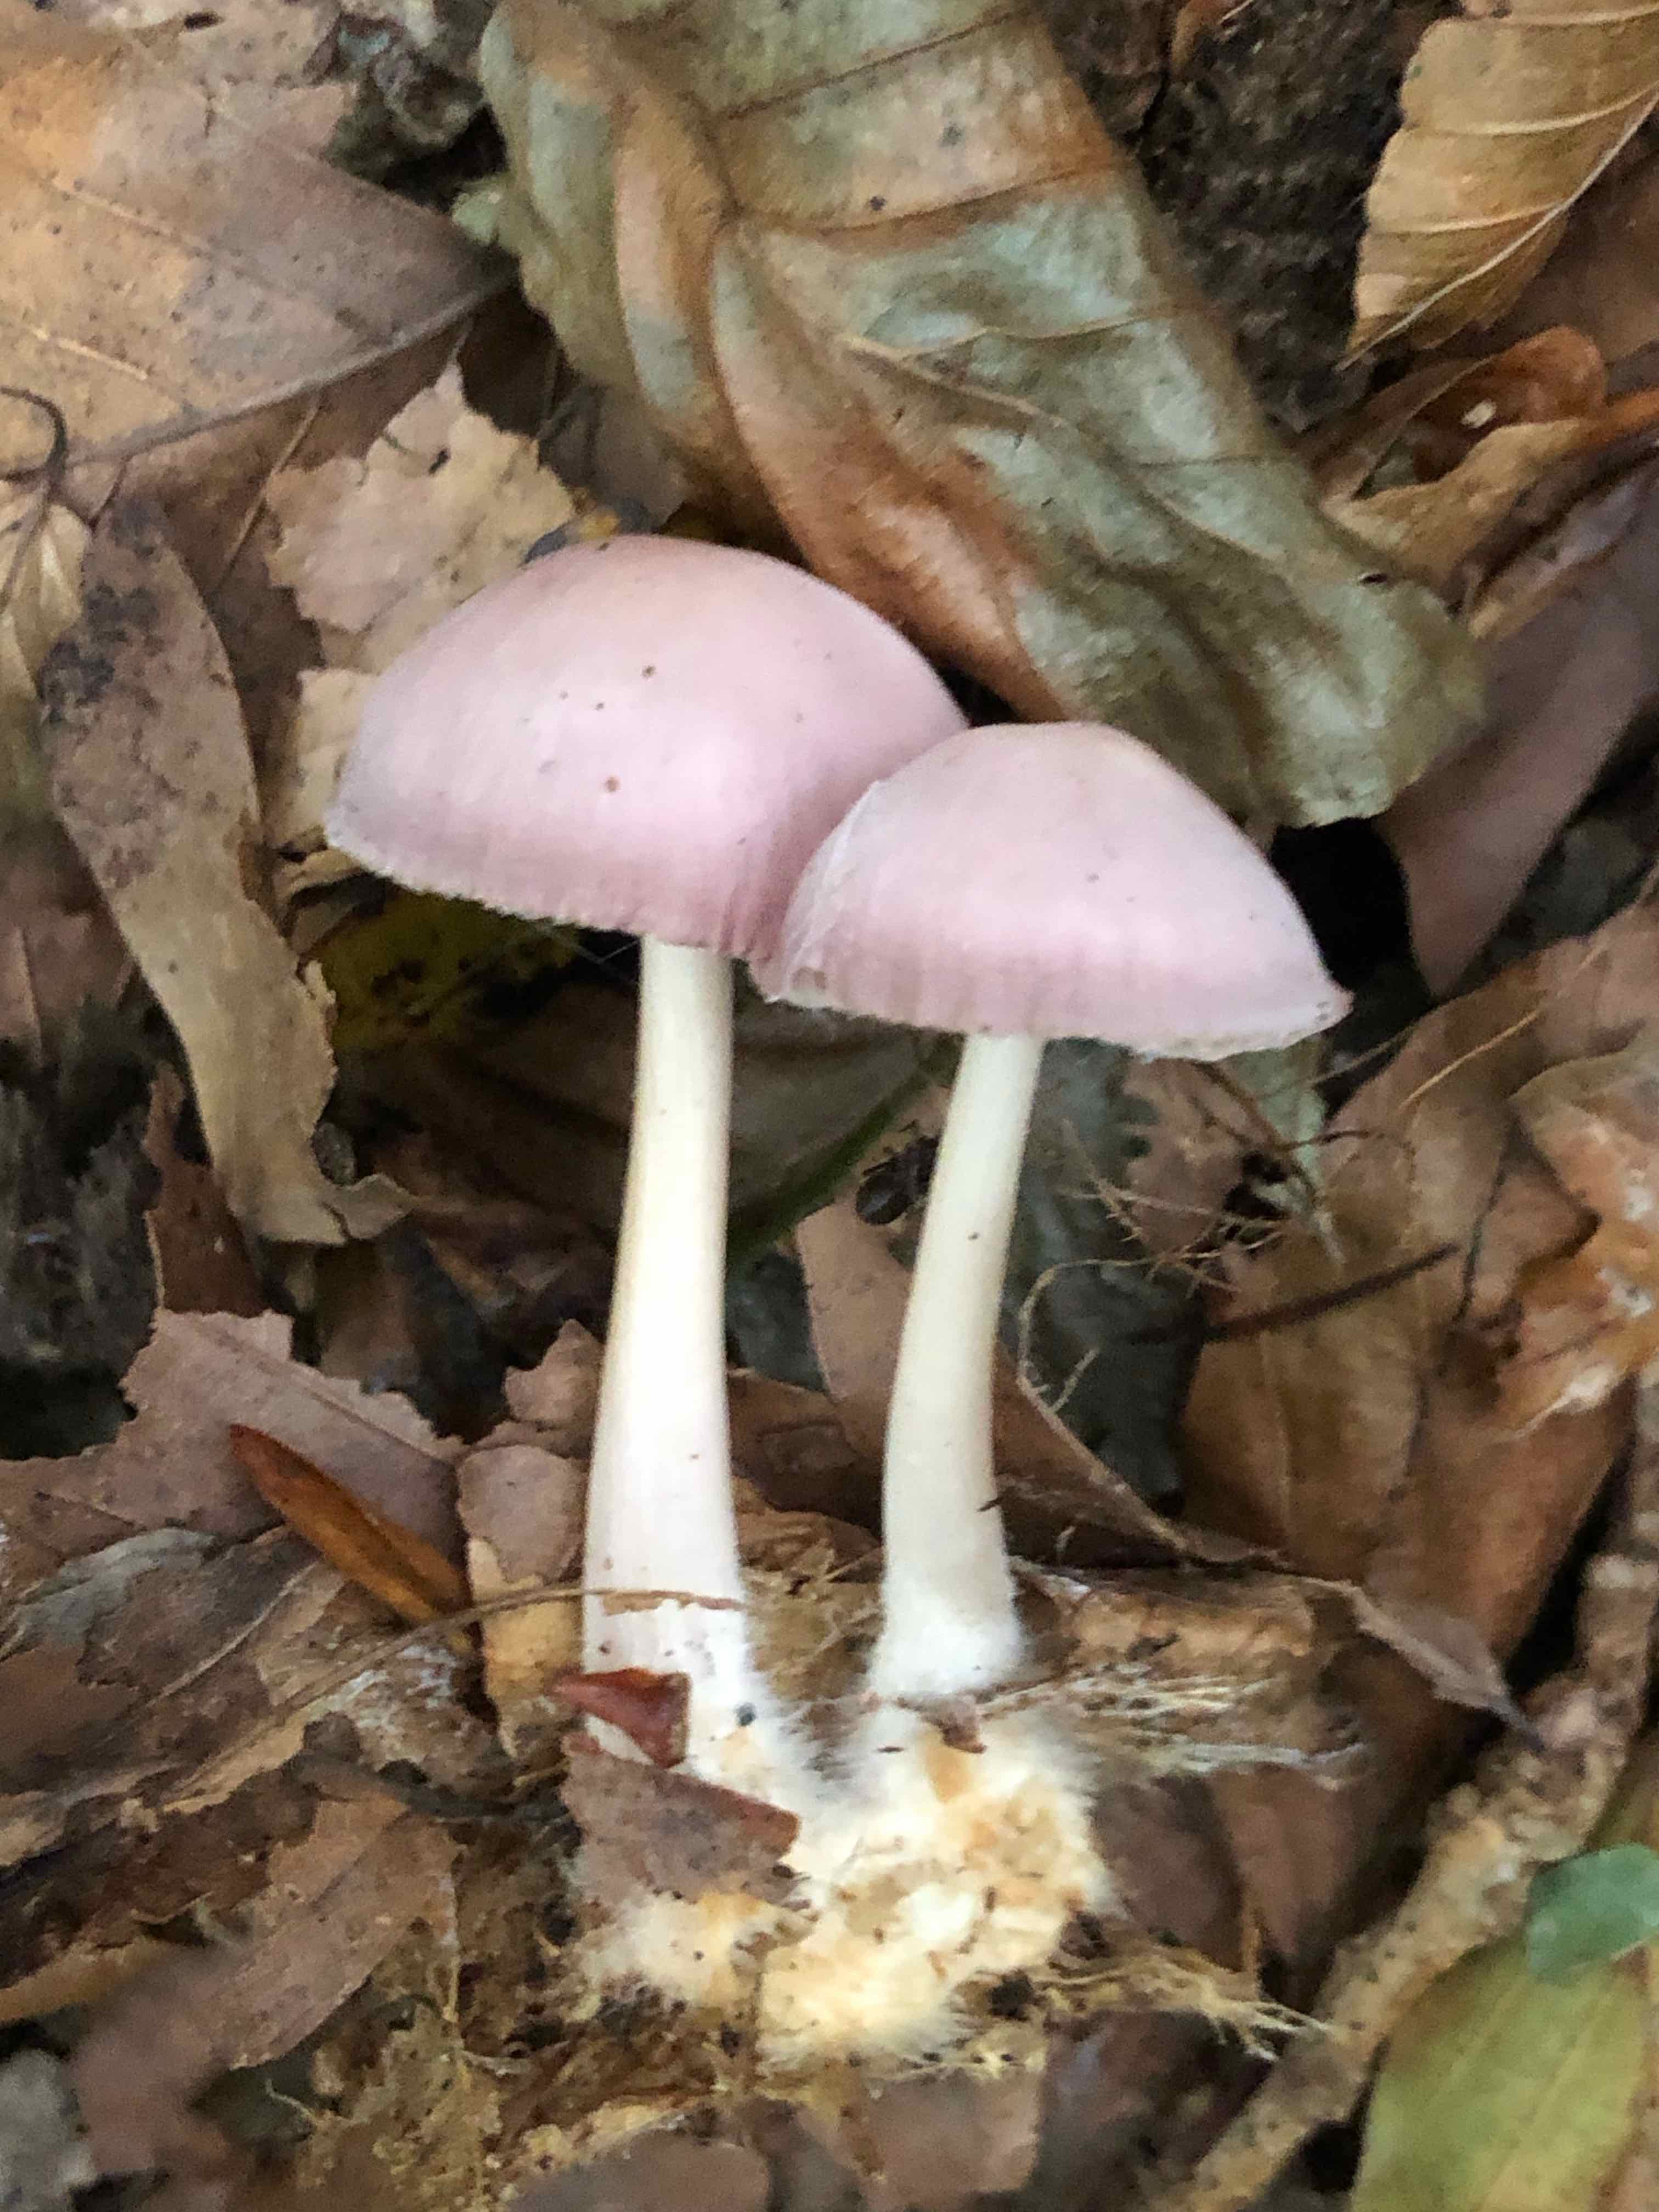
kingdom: Fungi
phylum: Basidiomycota
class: Agaricomycetes
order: Agaricales
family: Mycenaceae
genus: Mycena
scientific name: Mycena rosea
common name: rosa huesvamp
